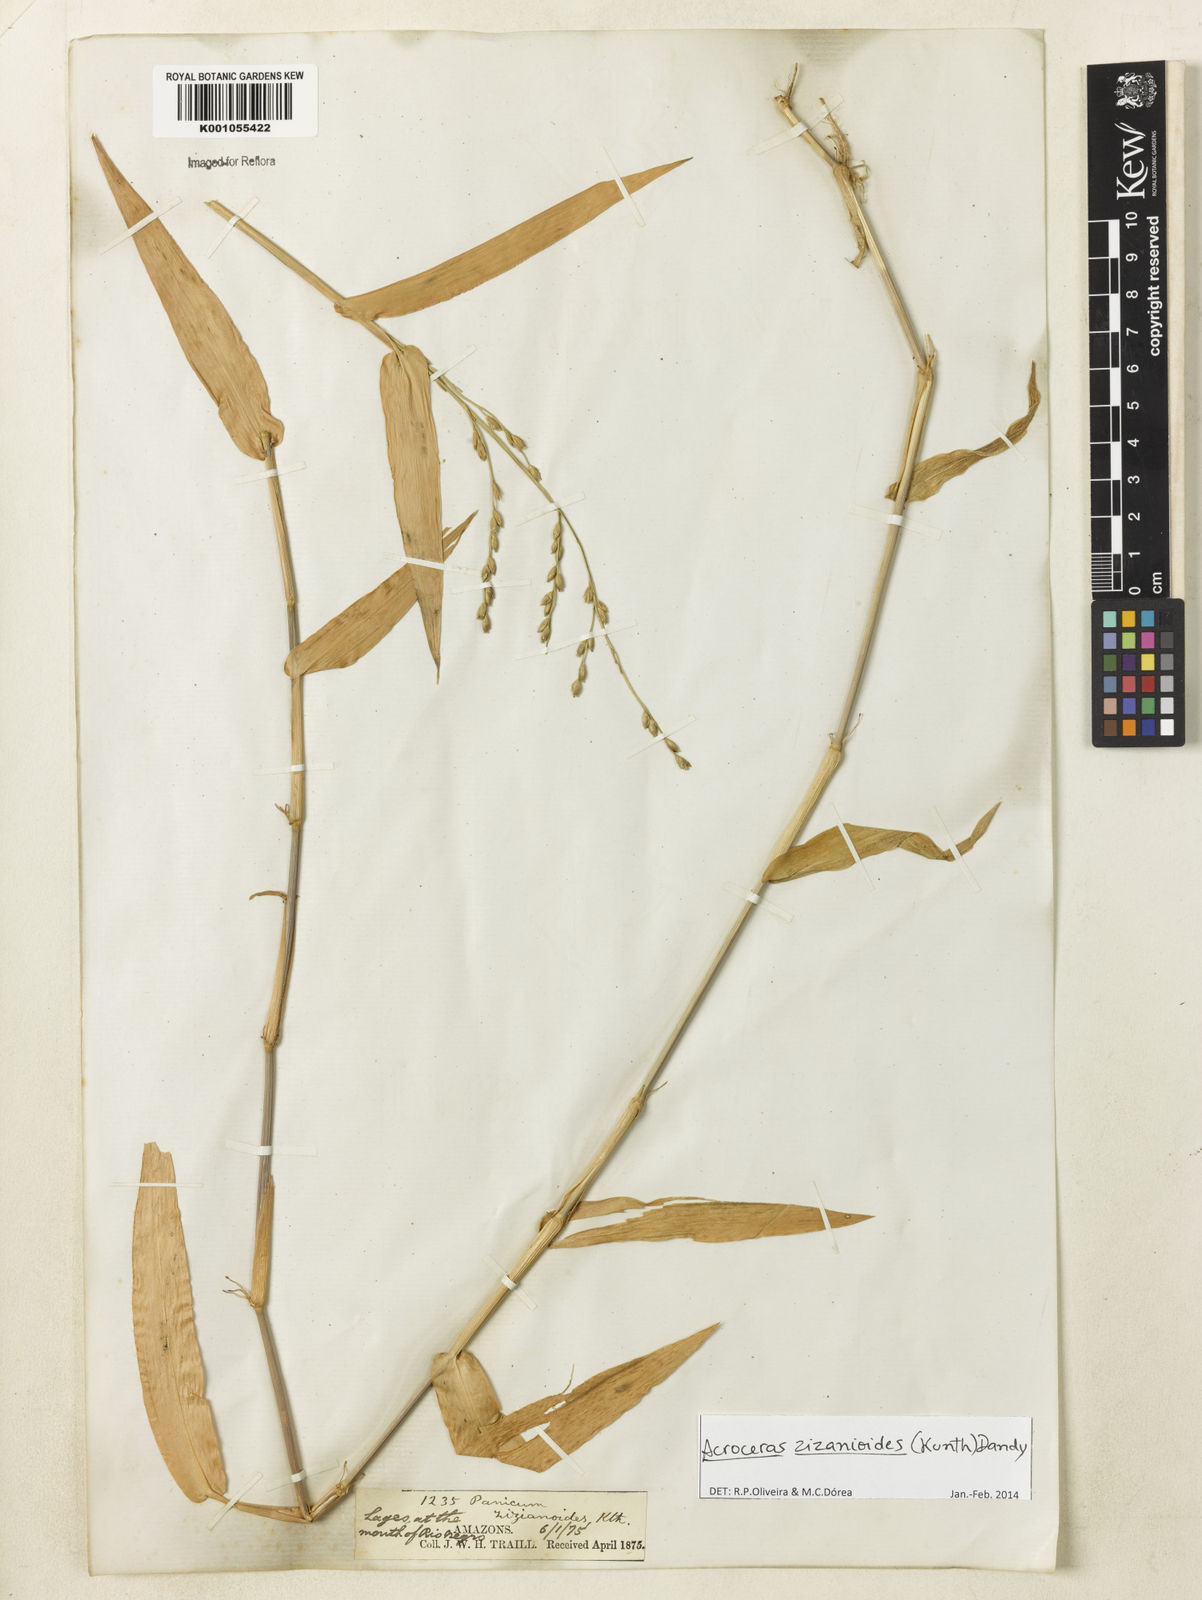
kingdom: Plantae
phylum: Tracheophyta
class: Liliopsida
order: Poales
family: Poaceae
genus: Acroceras
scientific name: Acroceras zizanioides
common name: Oat grass
